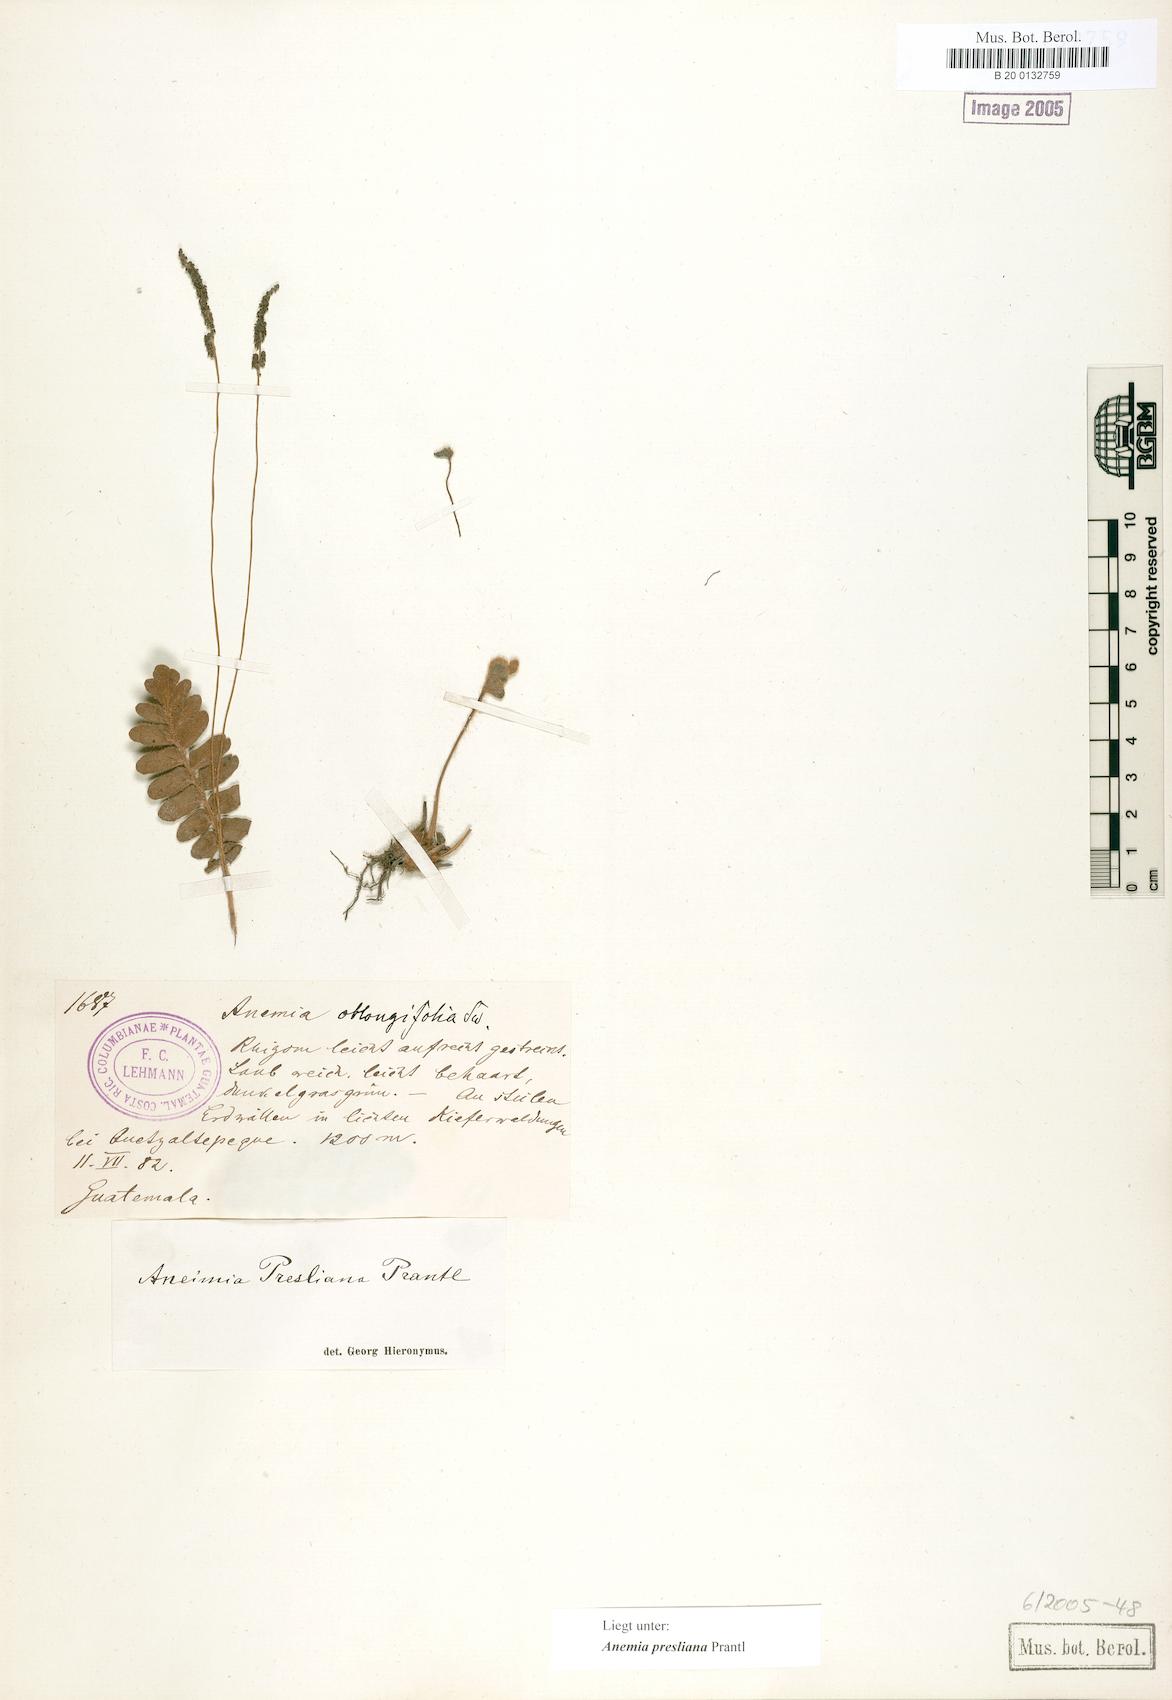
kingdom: Plantae
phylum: Tracheophyta
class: Polypodiopsida
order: Schizaeales
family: Anemiaceae
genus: Anemia
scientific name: Anemia presliana
